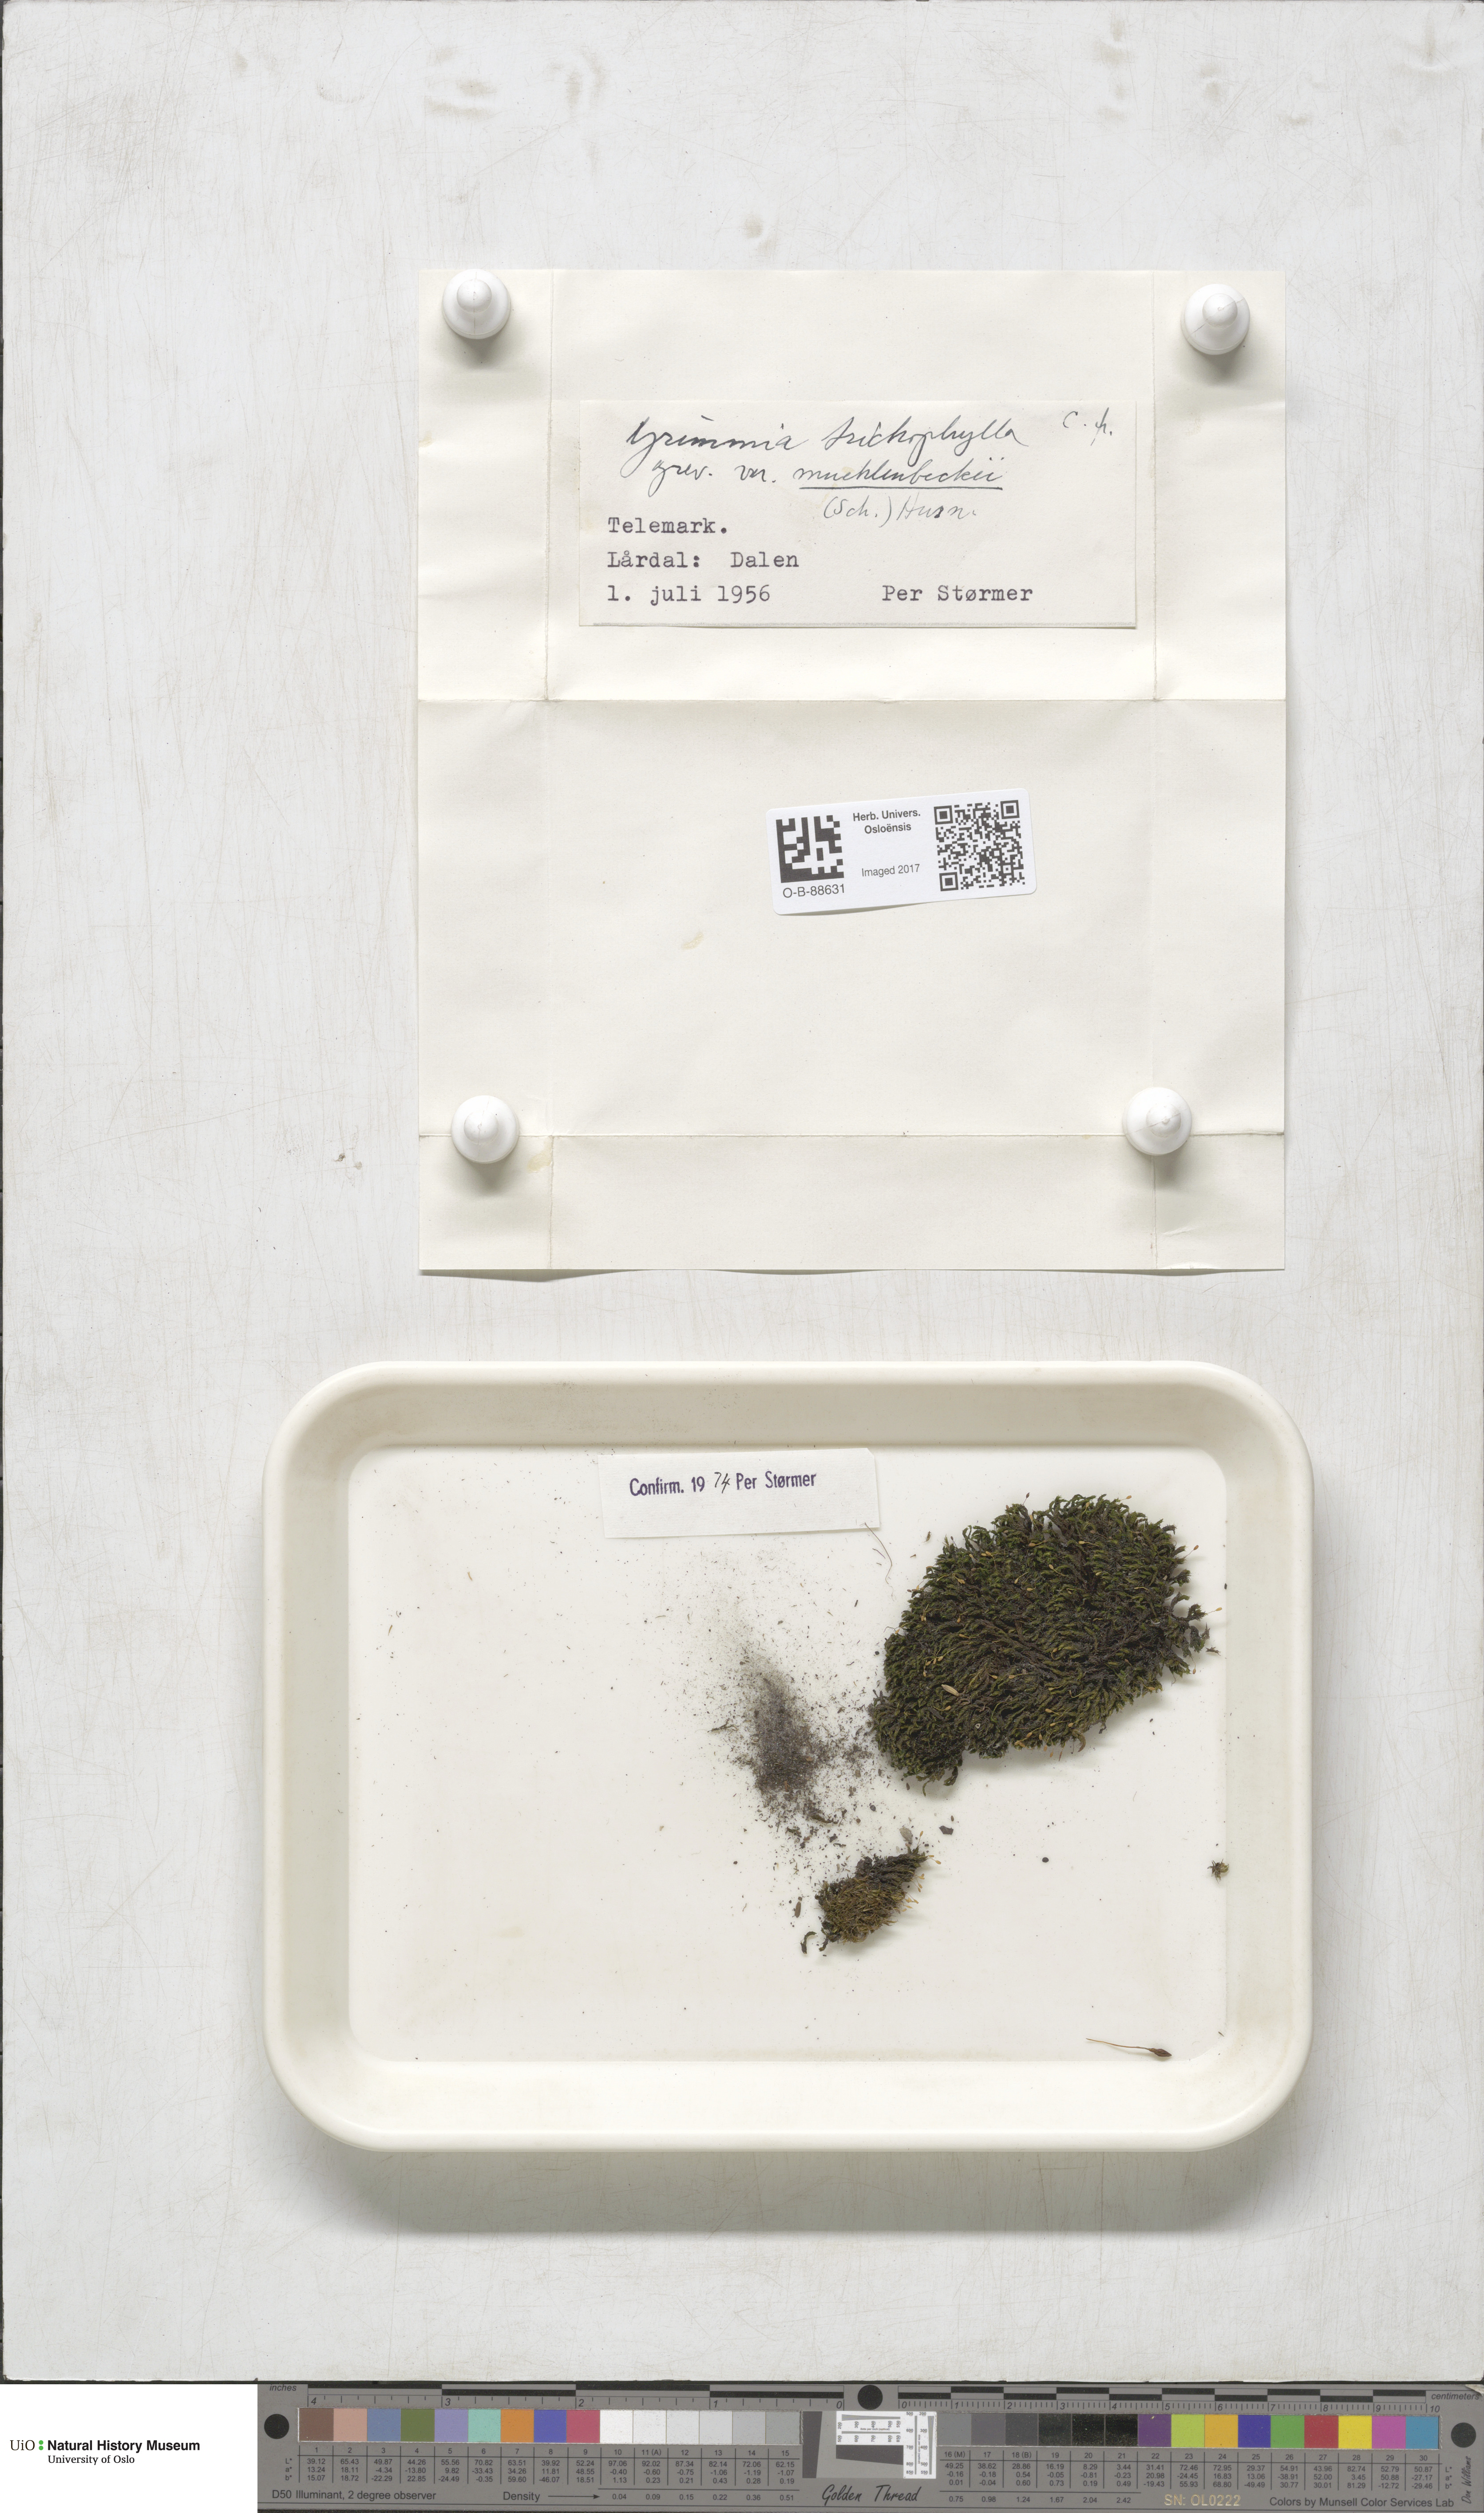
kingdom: Plantae
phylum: Bryophyta
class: Bryopsida
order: Grimmiales
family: Grimmiaceae
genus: Grimmia
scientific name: Grimmia muehlenbeckii
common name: Muehlenbeck's grimmia
